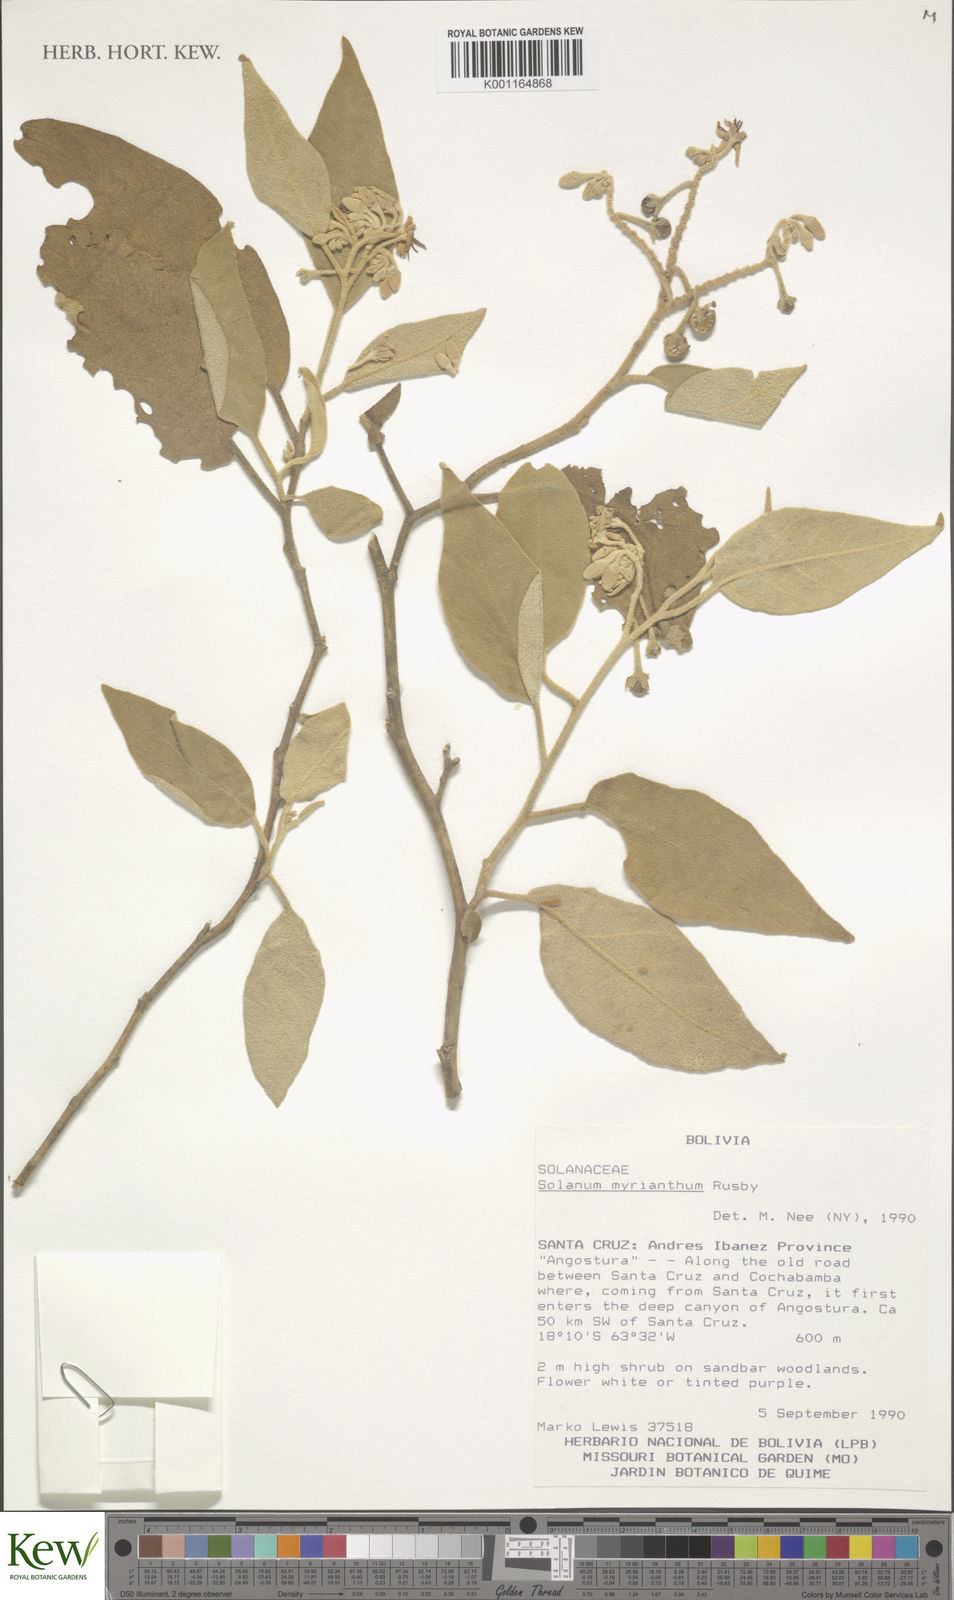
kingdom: Plantae
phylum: Tracheophyta
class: Magnoliopsida
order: Solanales
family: Solanaceae
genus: Solanum
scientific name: Solanum myriacanthum
